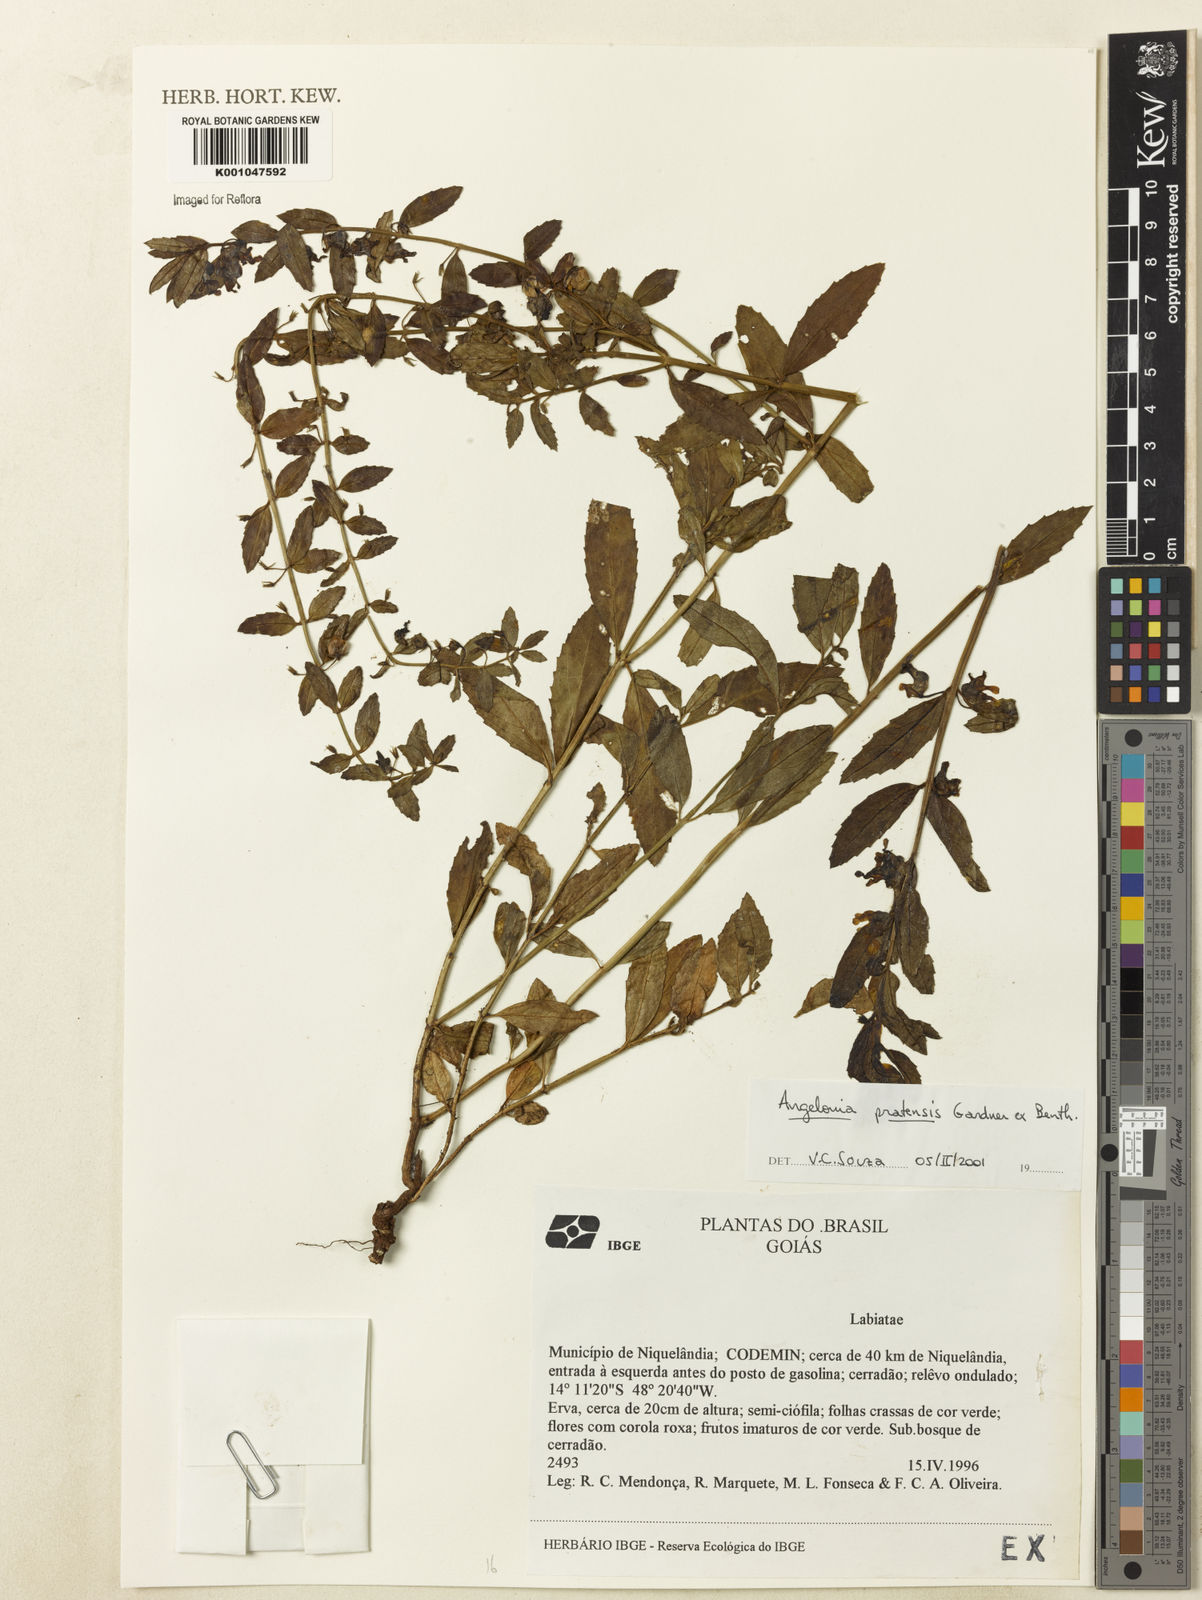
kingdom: Plantae
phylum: Tracheophyta
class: Magnoliopsida
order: Lamiales
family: Plantaginaceae
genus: Angelonia
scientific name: Angelonia pratensis
